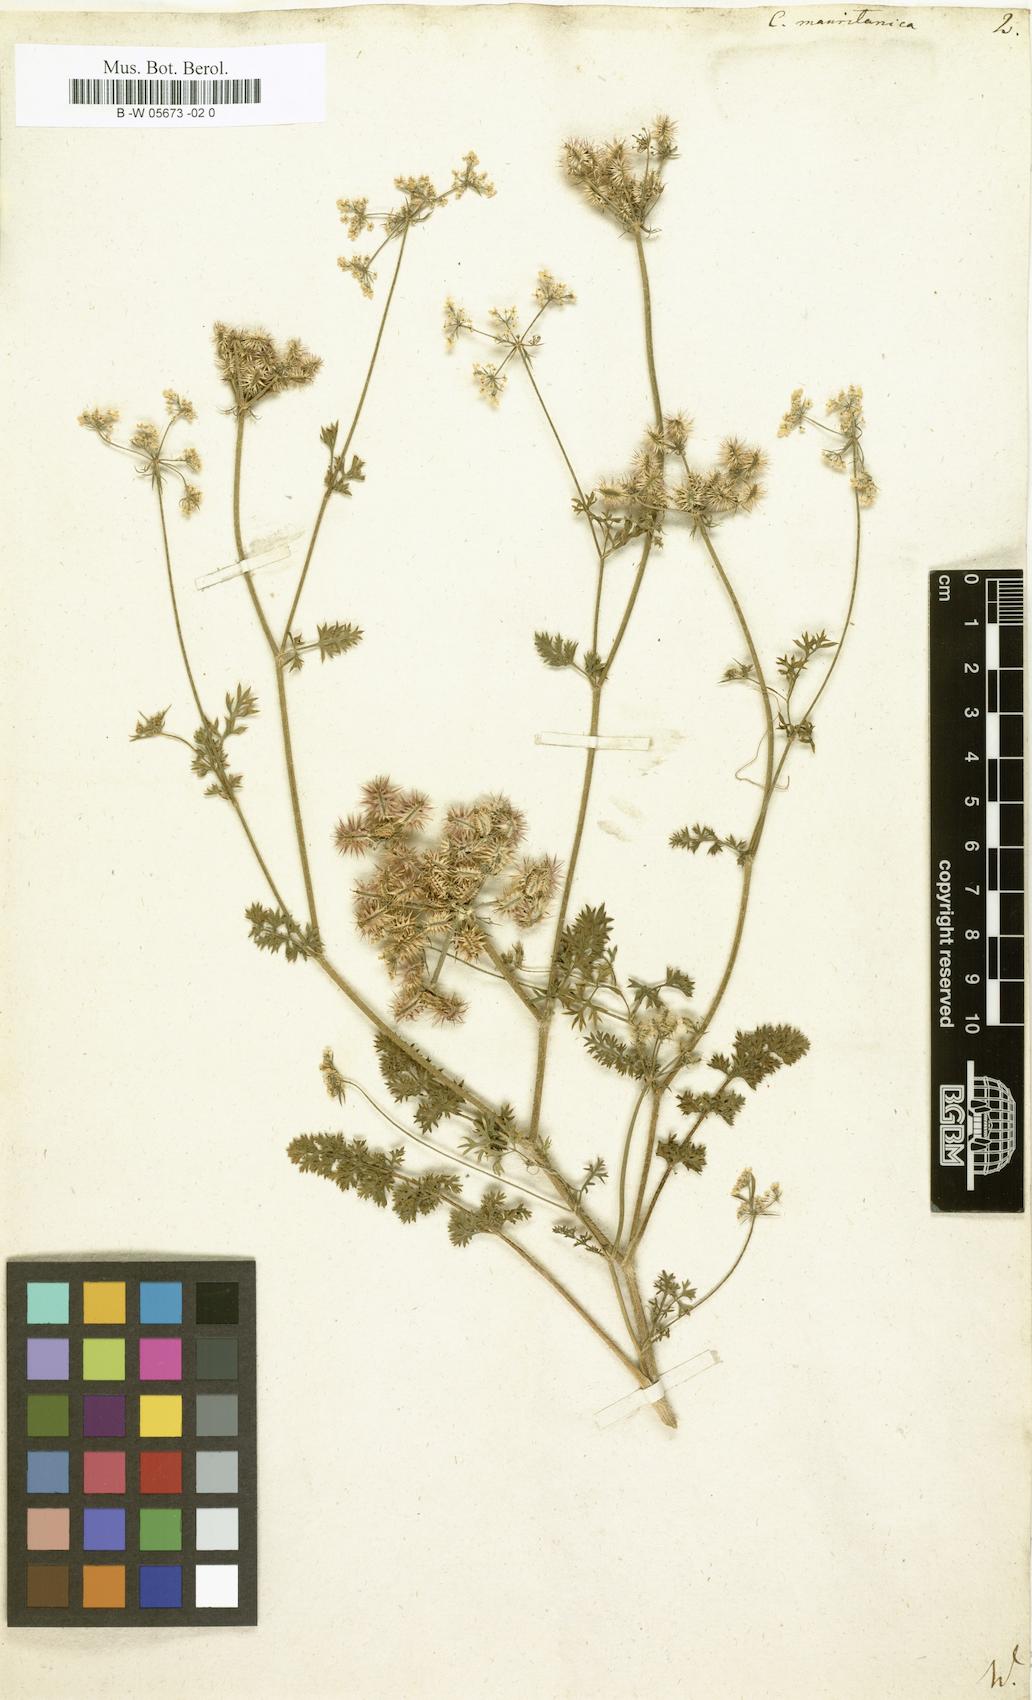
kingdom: Plantae
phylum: Tracheophyta
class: Magnoliopsida
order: Apiales
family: Apiaceae
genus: Torilis
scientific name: Torilis elongata
